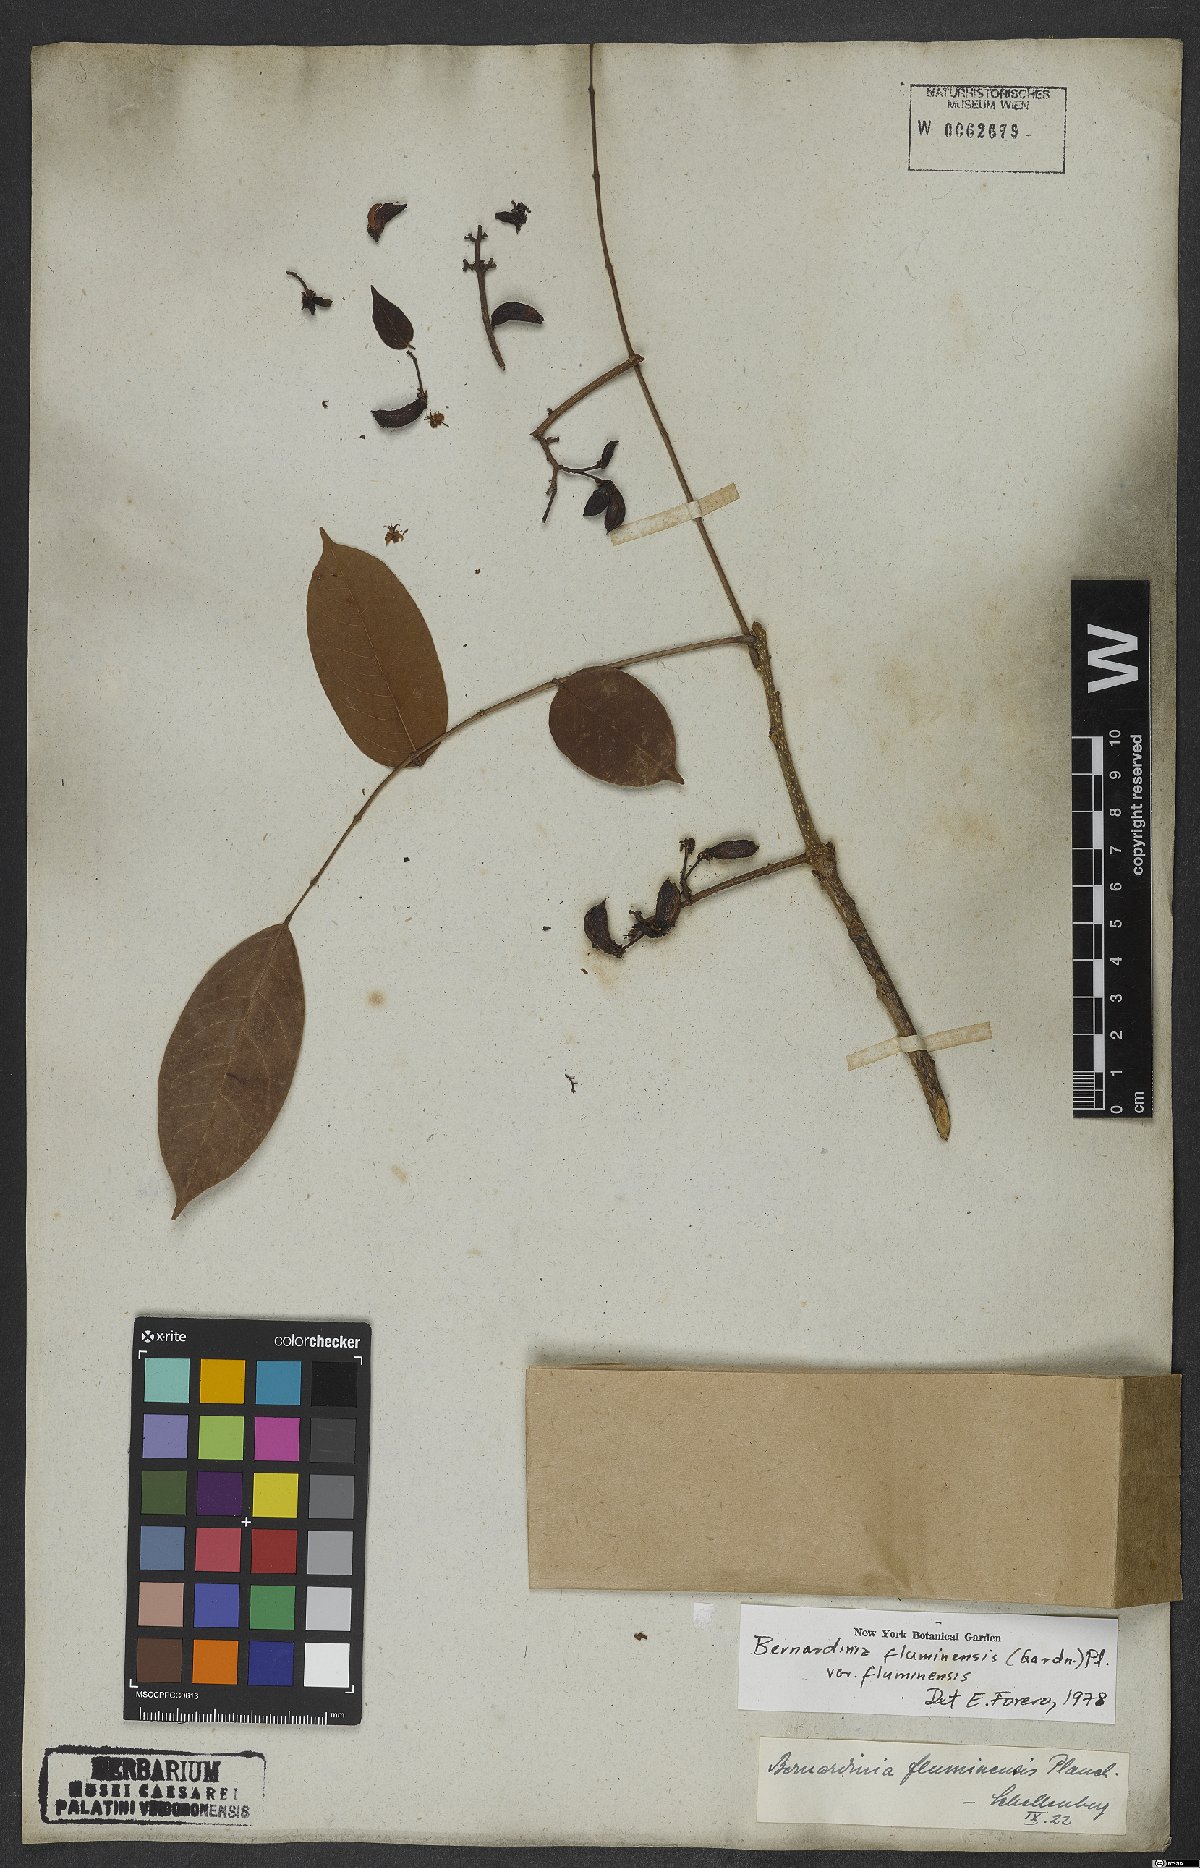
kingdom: Plantae
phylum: Tracheophyta
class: Magnoliopsida
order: Oxalidales
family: Connaraceae
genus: Rourea
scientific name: Rourea fluminensis
